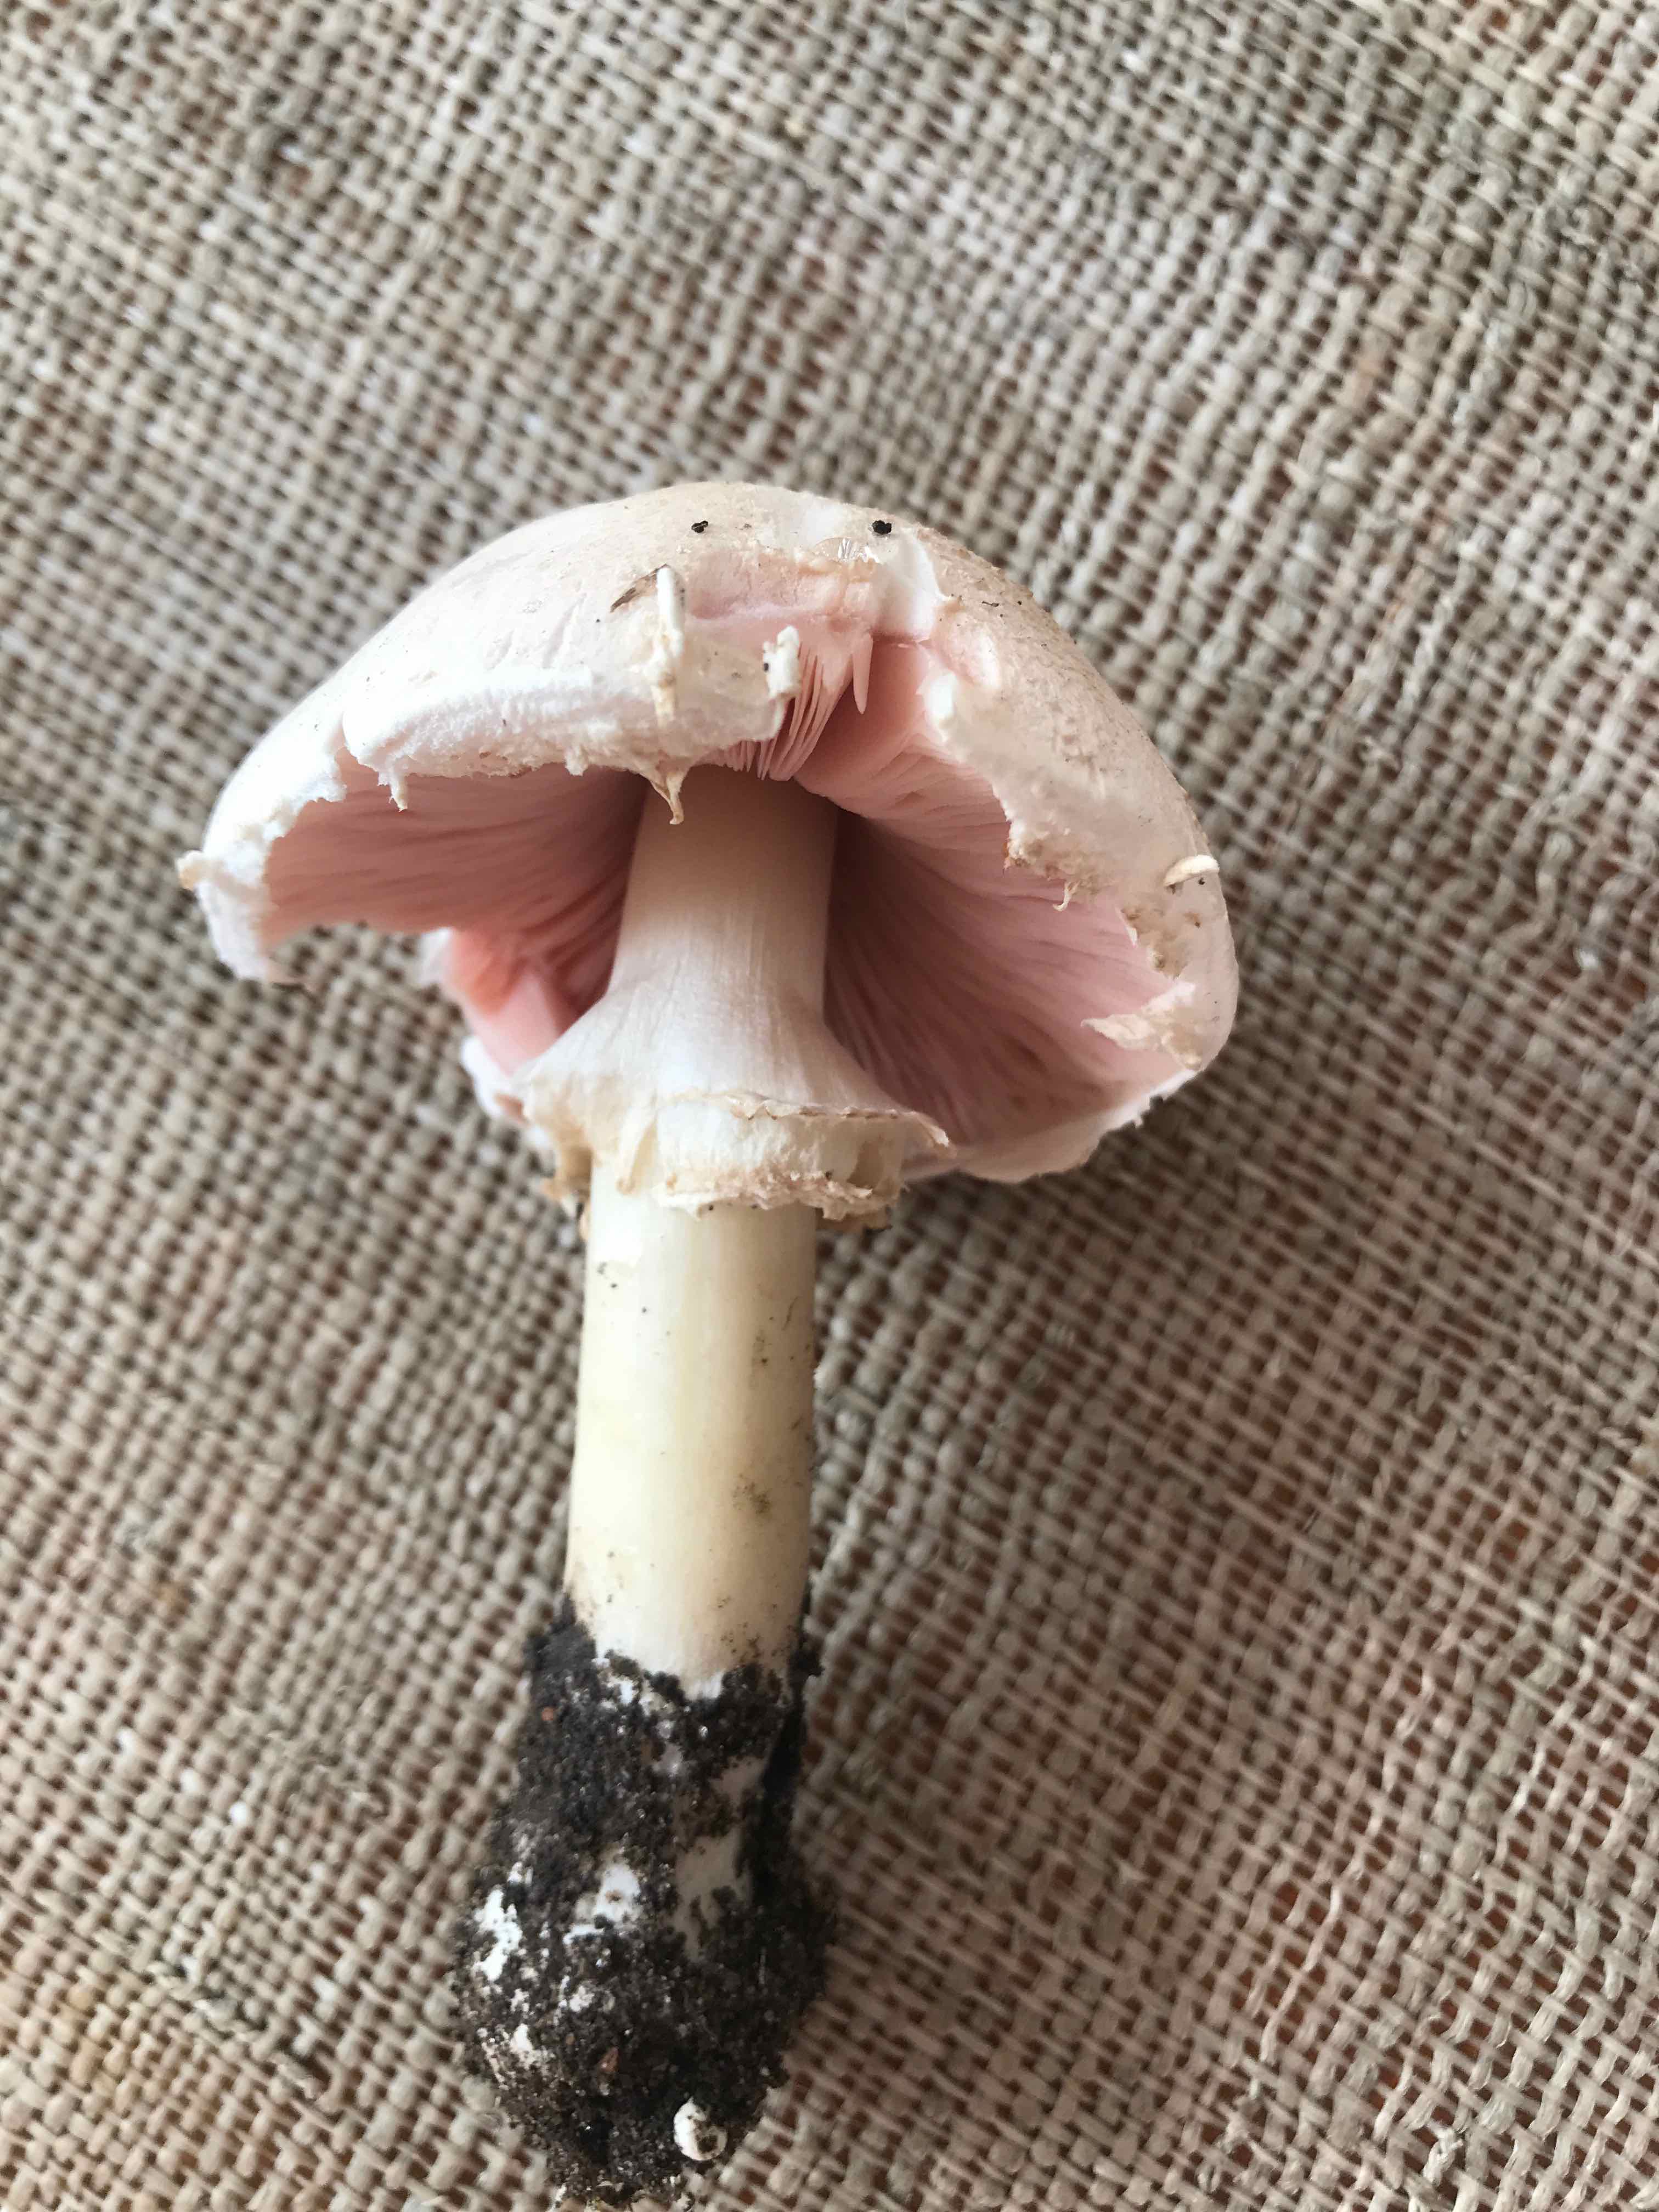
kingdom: Fungi
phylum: Basidiomycota
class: Agaricomycetes
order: Agaricales
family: Agaricaceae
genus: Agaricus
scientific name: Agaricus
